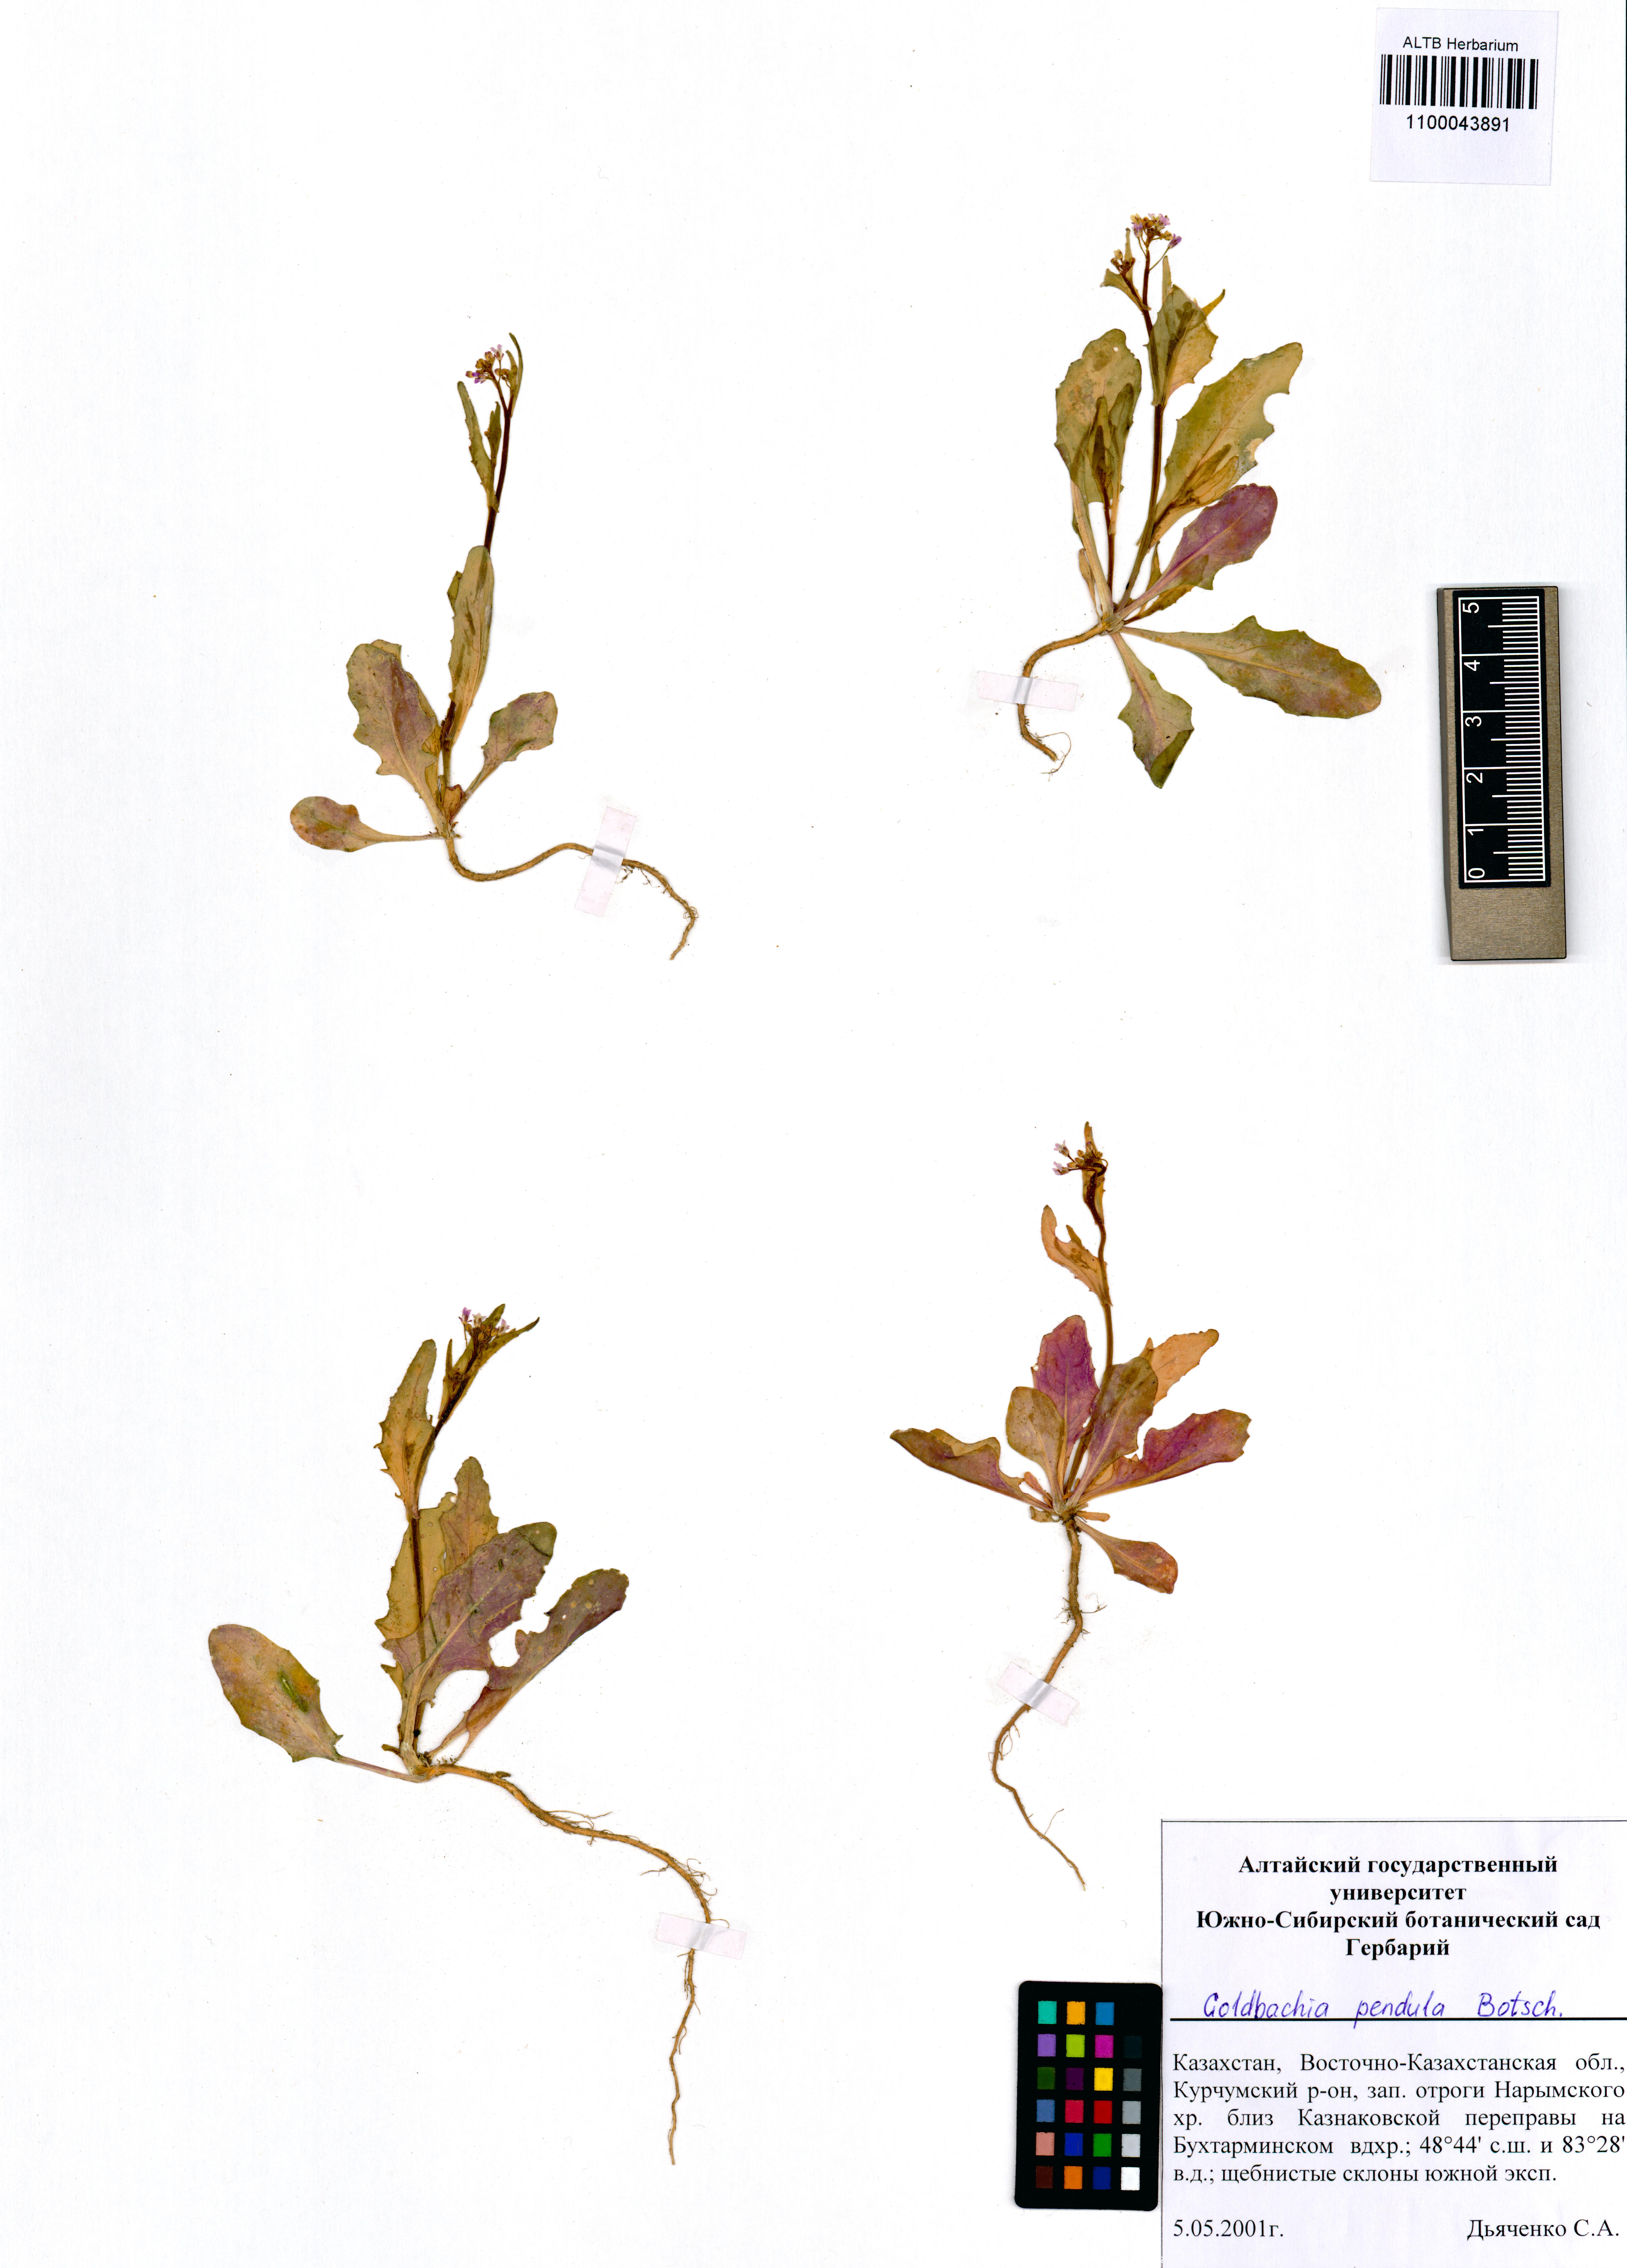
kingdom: Plantae
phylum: Tracheophyta
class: Magnoliopsida
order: Brassicales
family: Brassicaceae
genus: Goldbachia
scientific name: Goldbachia pendula
